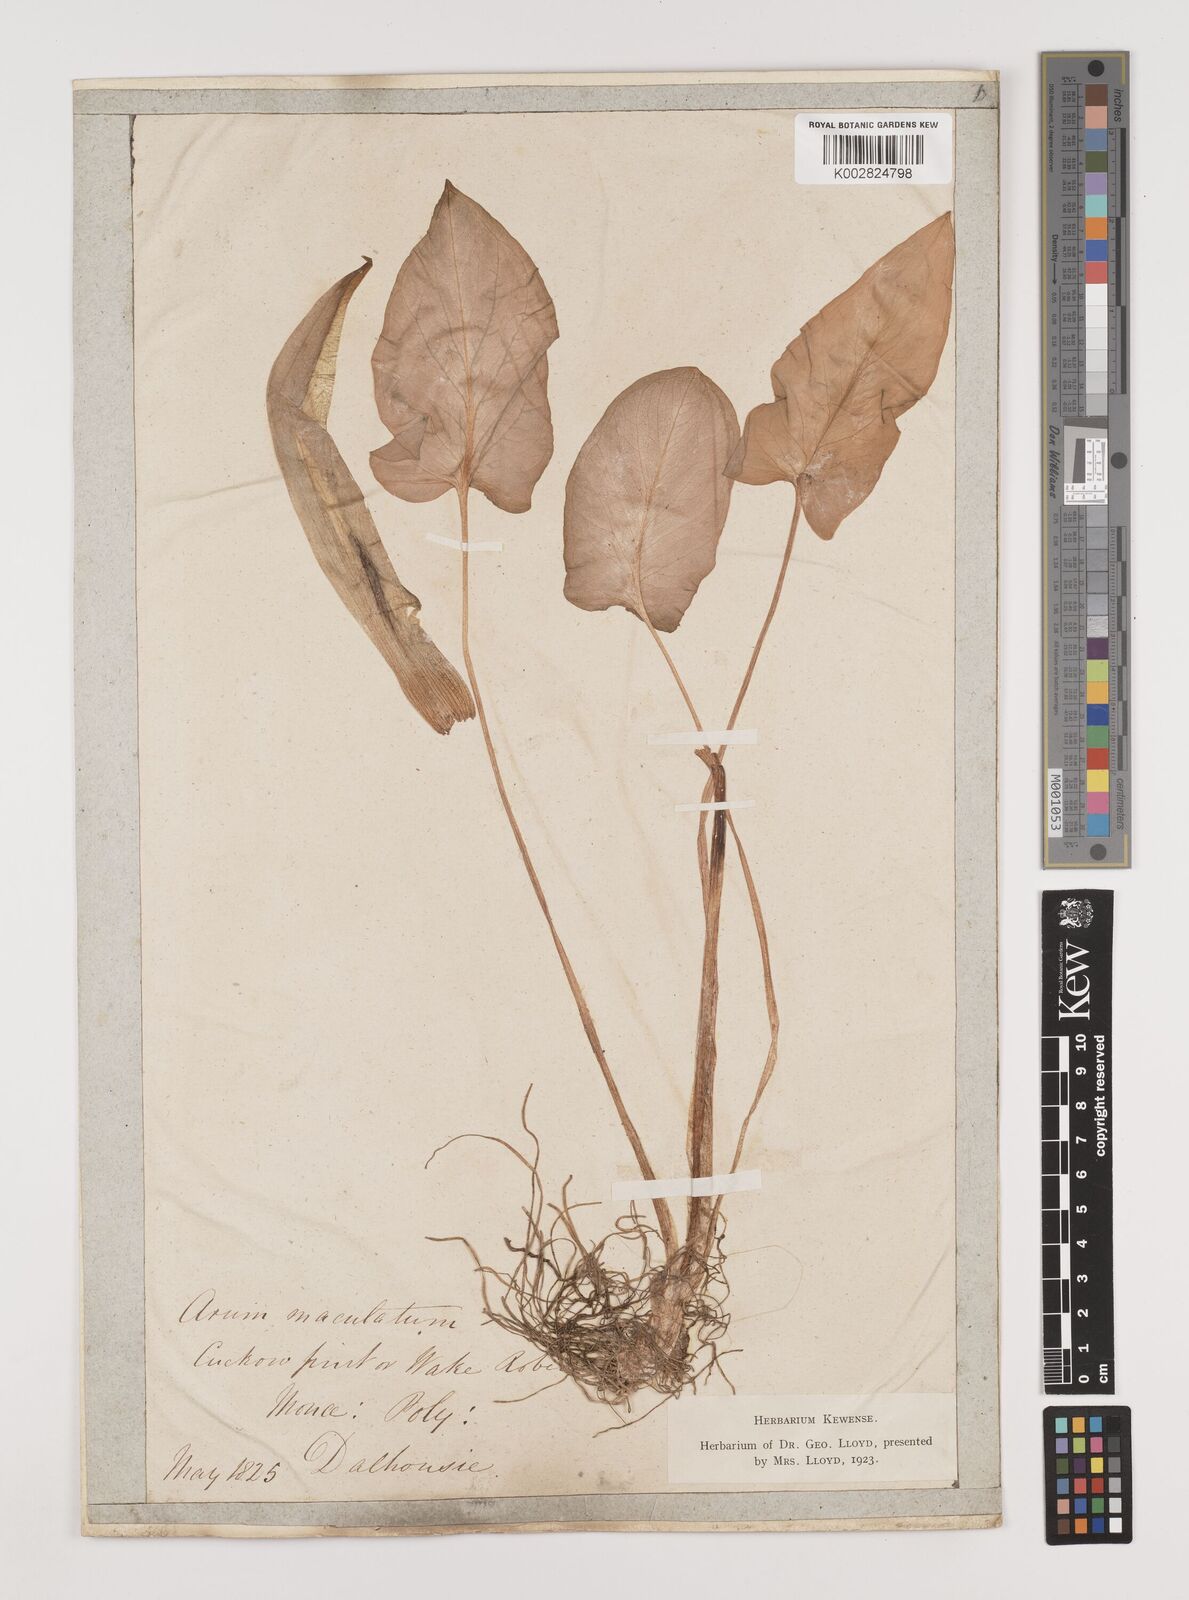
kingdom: Plantae
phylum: Tracheophyta
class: Liliopsida
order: Alismatales
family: Araceae
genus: Arum
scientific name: Arum maculatum
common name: Lords-and-ladies
